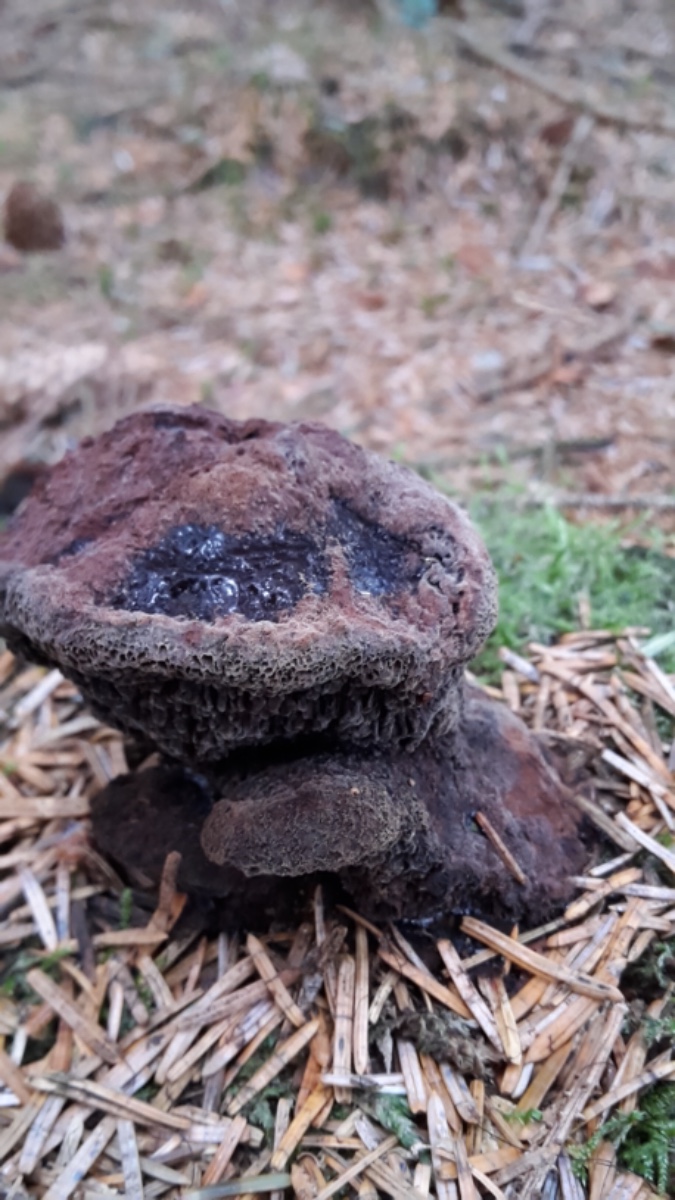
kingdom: Fungi
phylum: Basidiomycota
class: Agaricomycetes
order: Polyporales
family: Laetiporaceae
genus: Phaeolus
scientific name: Phaeolus schweinitzii
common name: brunporesvamp
